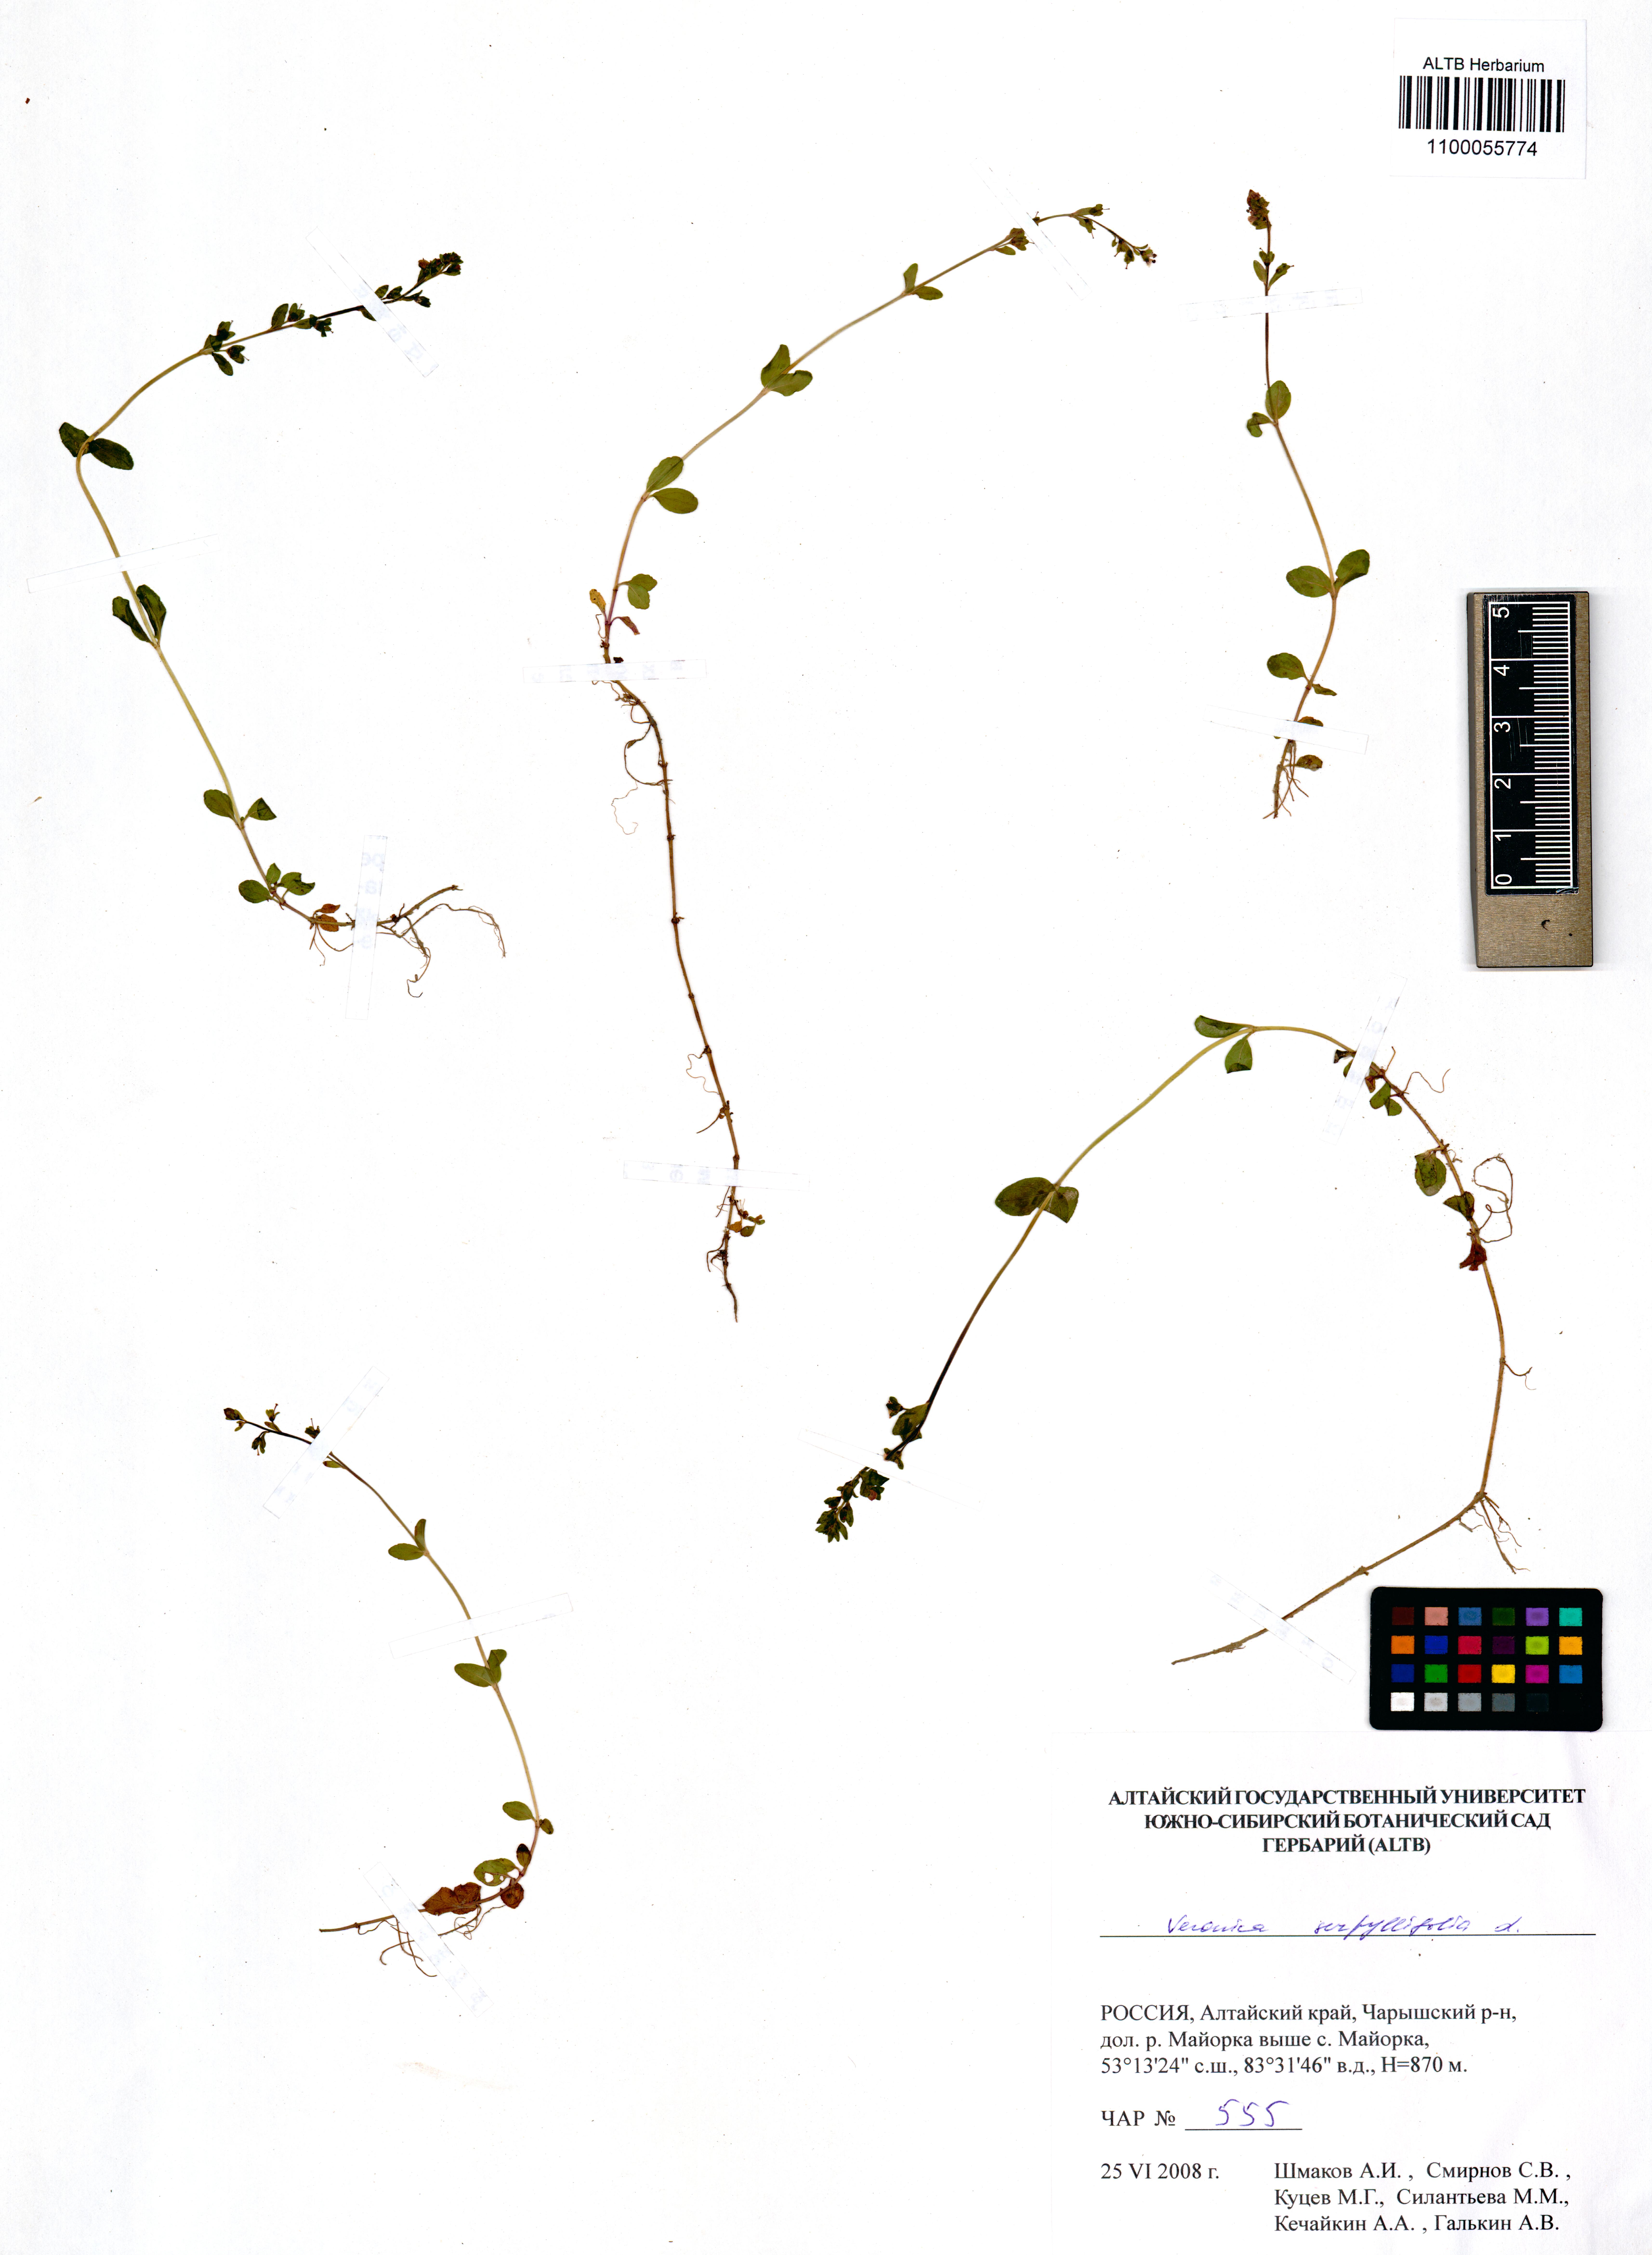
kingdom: Plantae
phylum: Tracheophyta
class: Magnoliopsida
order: Lamiales
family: Plantaginaceae
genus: Veronica
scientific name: Veronica serpyllifolia
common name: Thyme-leaved speedwell
